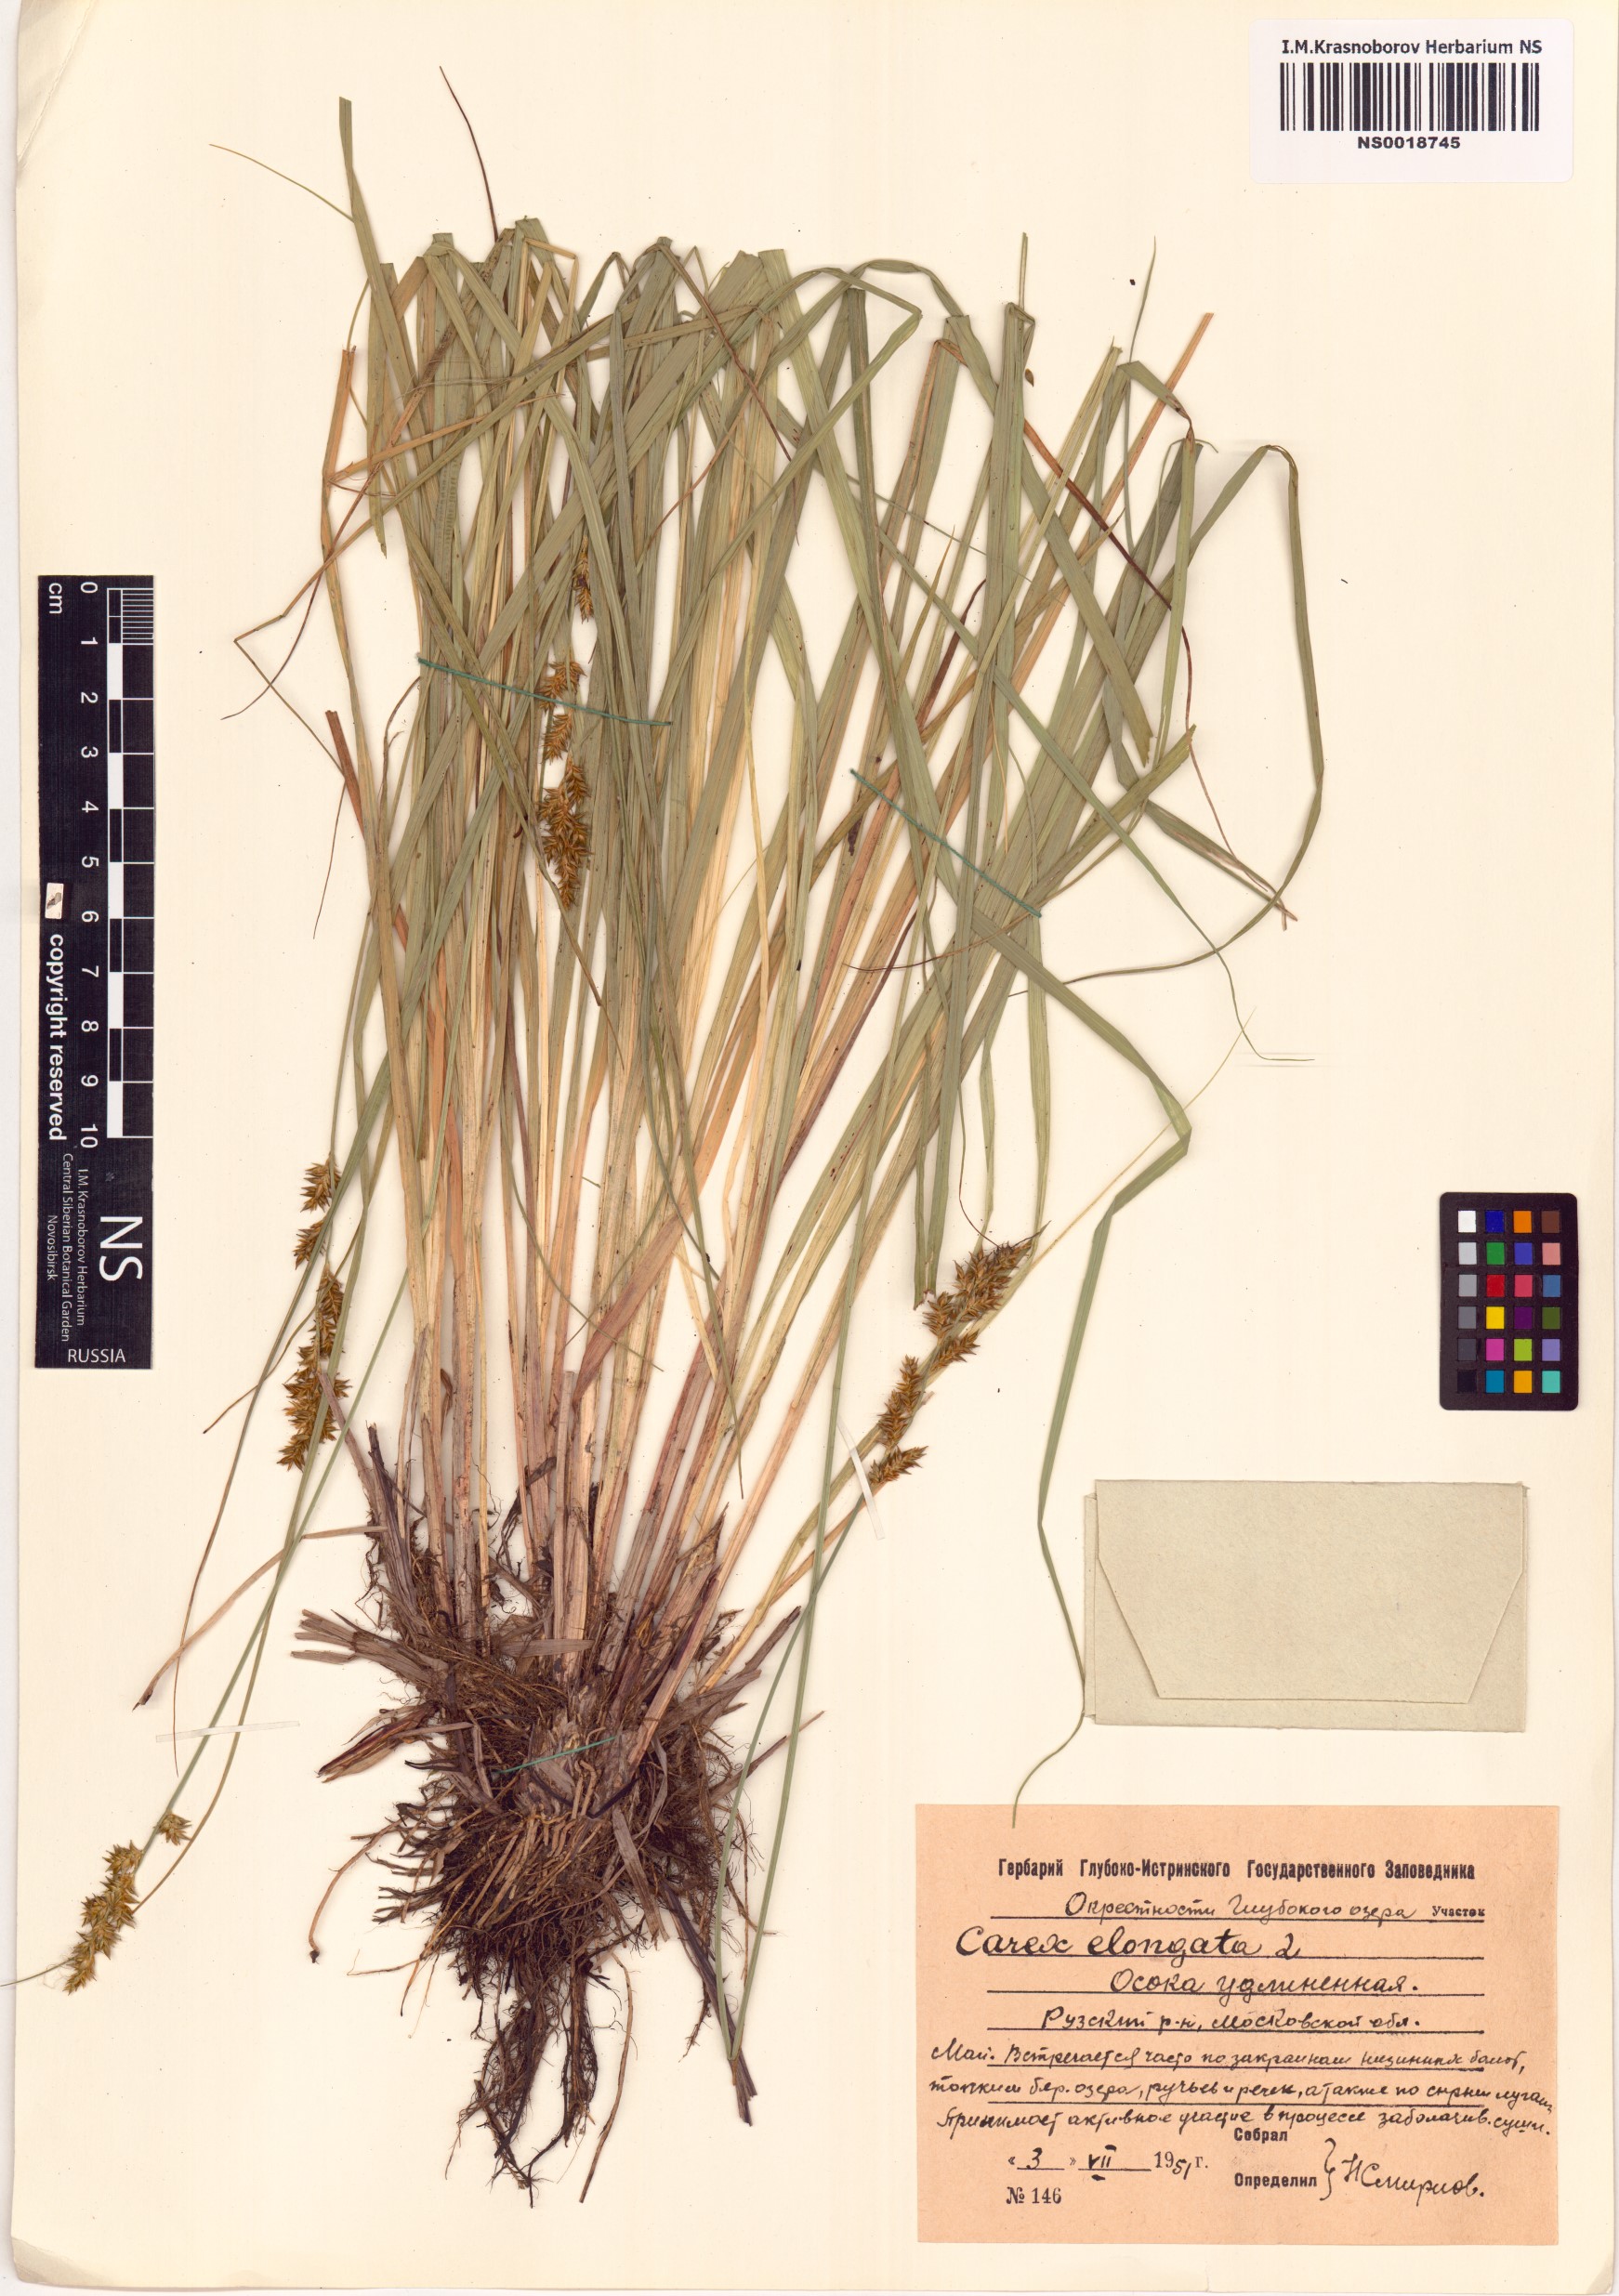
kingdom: Plantae
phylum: Tracheophyta
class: Liliopsida
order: Poales
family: Cyperaceae
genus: Carex
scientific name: Carex elongata
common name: Elongated sedge
